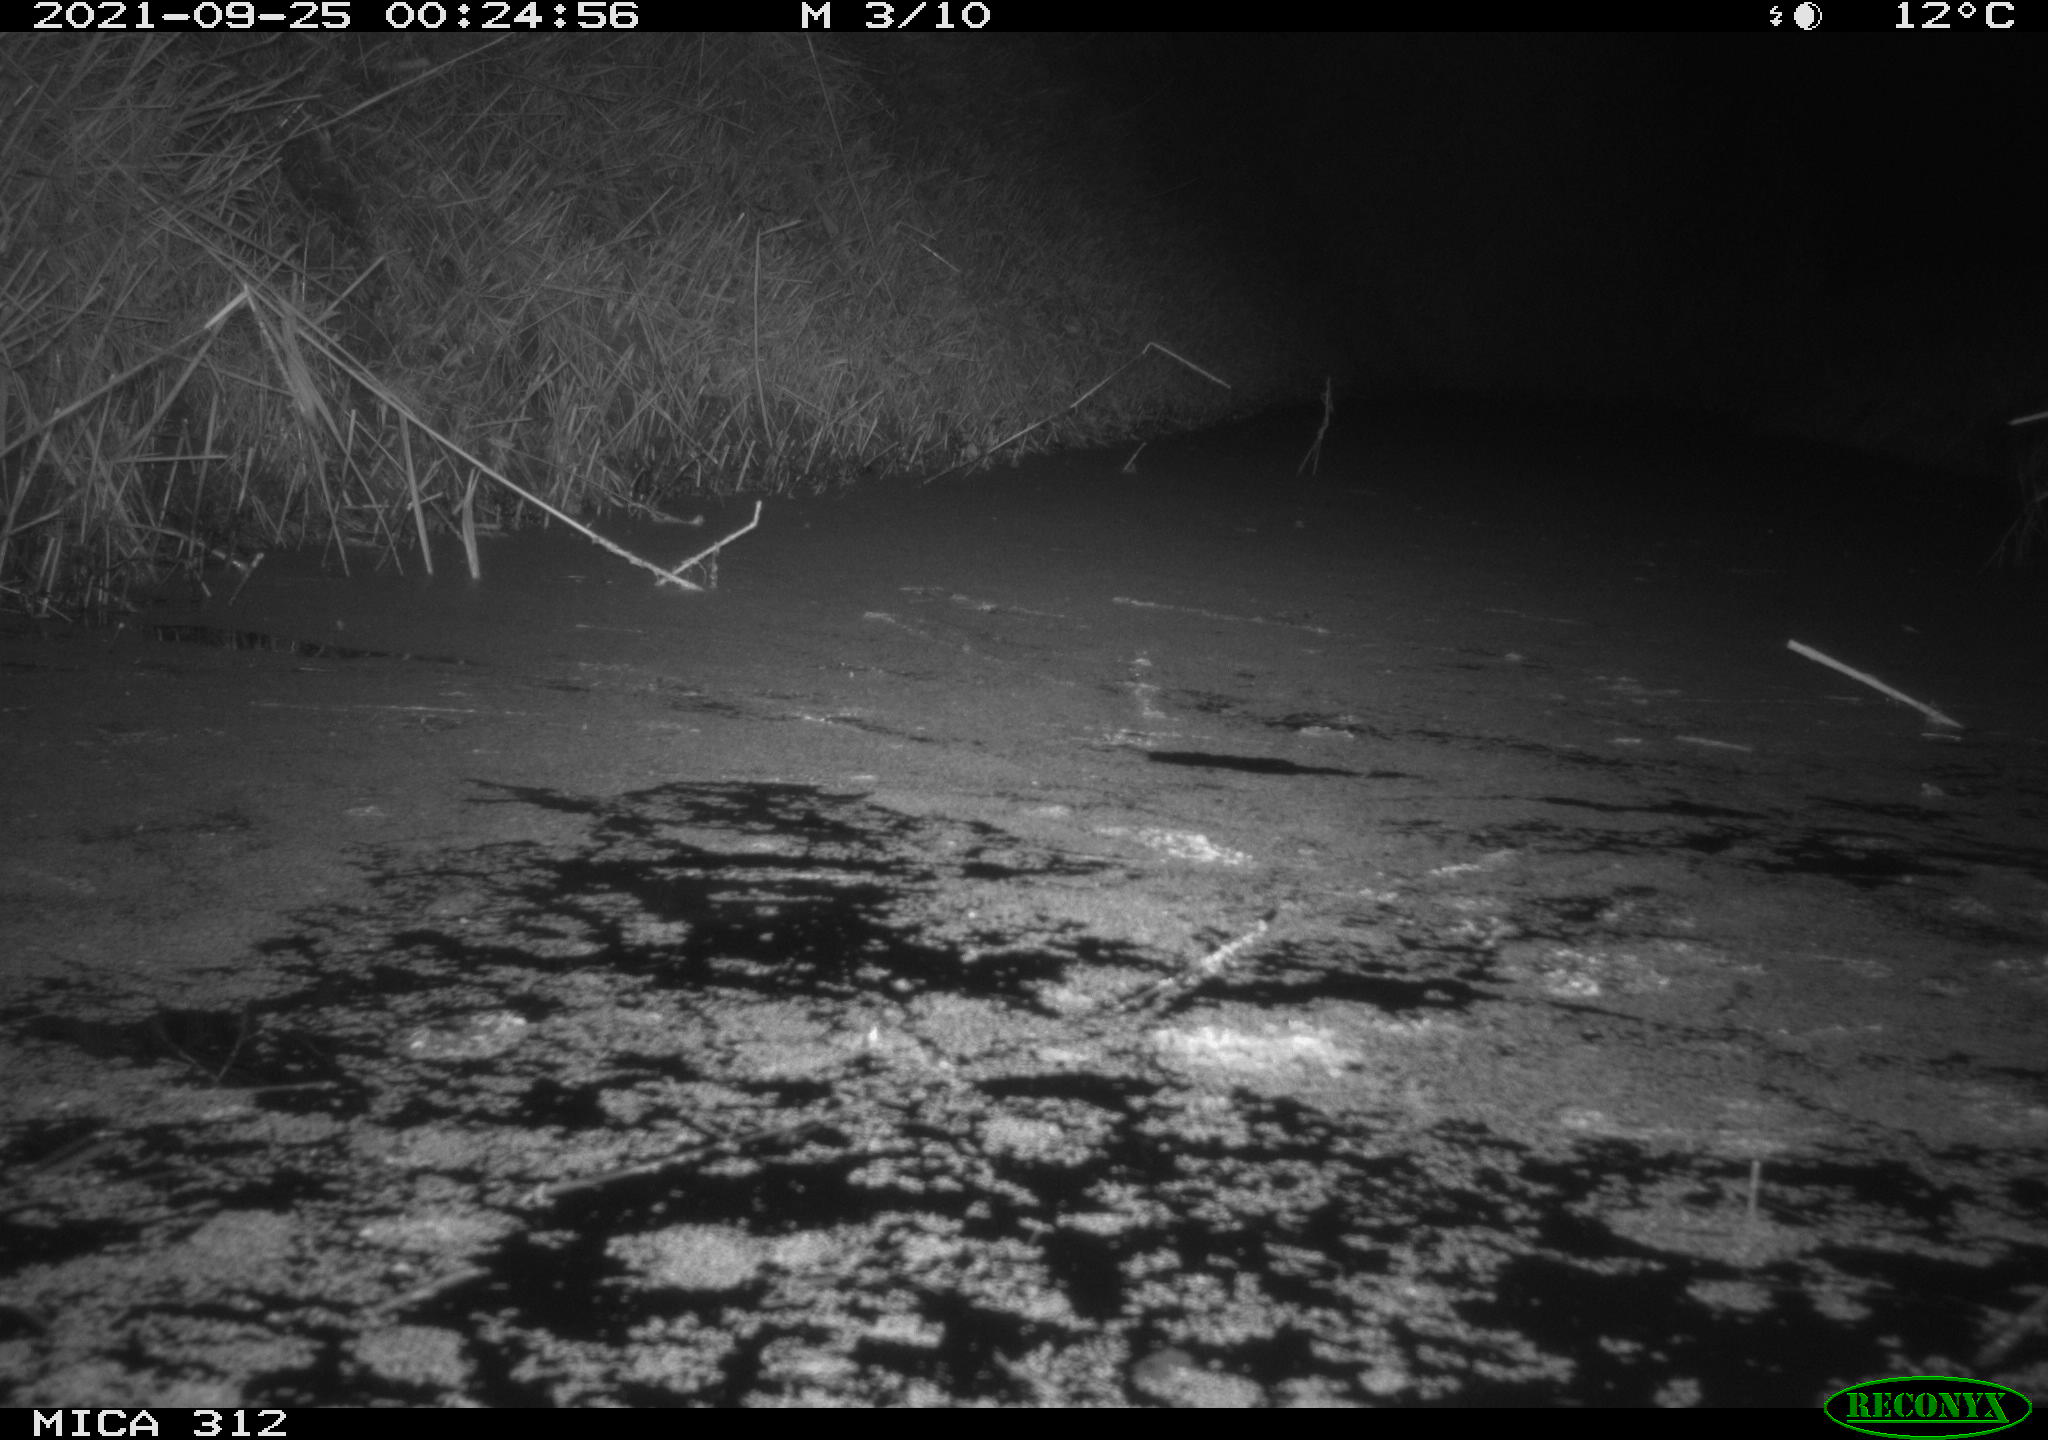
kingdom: Animalia
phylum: Chordata
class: Mammalia
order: Rodentia
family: Muridae
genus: Rattus
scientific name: Rattus norvegicus
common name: Brown rat
